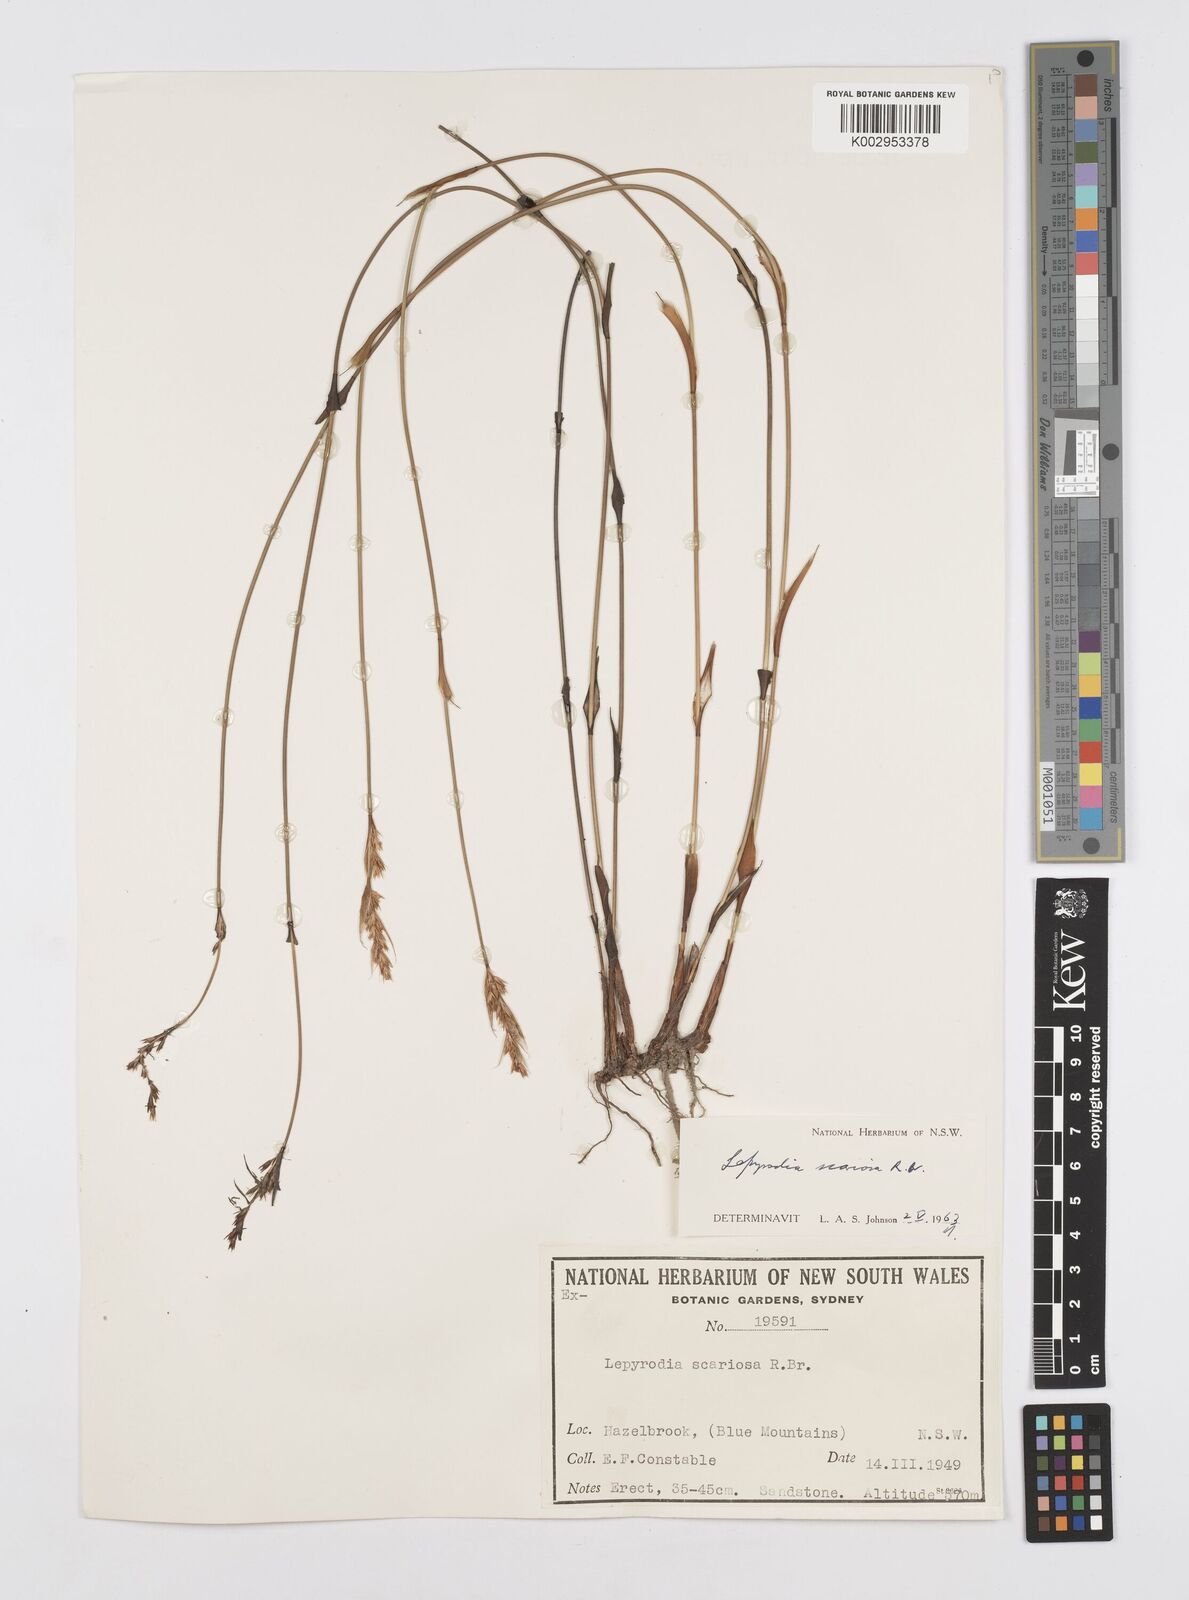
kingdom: Plantae
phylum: Tracheophyta
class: Liliopsida
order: Poales
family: Restionaceae
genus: Lepyrodia
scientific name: Lepyrodia scariosa
